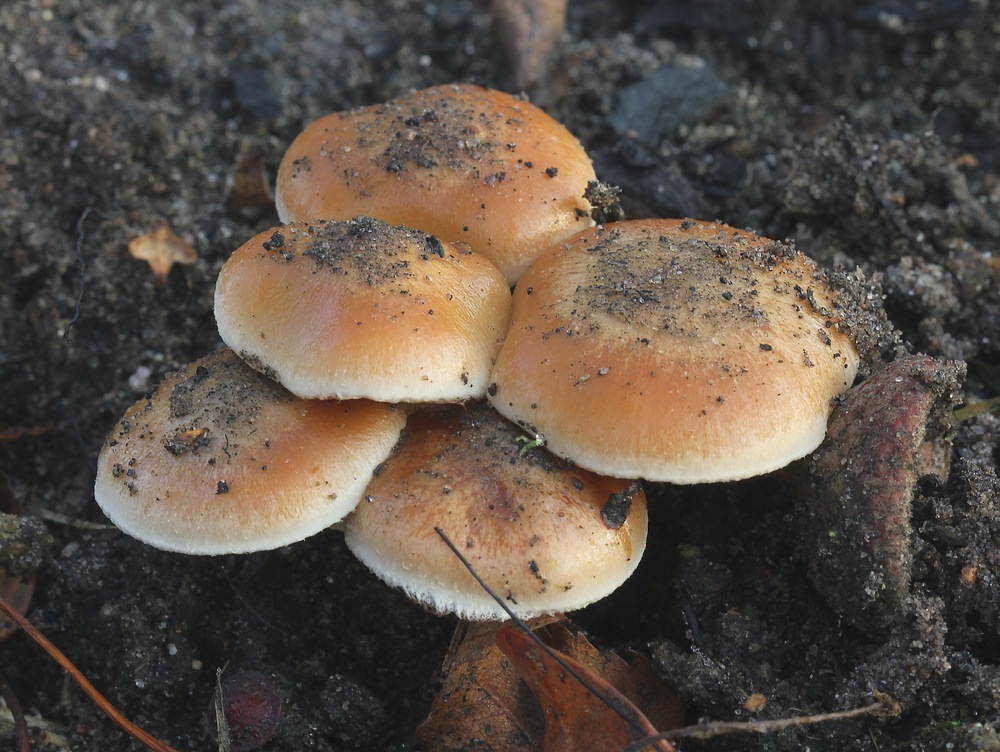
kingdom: Fungi
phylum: Basidiomycota
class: Agaricomycetes
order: Agaricales
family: Strophariaceae
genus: Pholiota
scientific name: Pholiota carbonaria
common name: kul-skælhat
